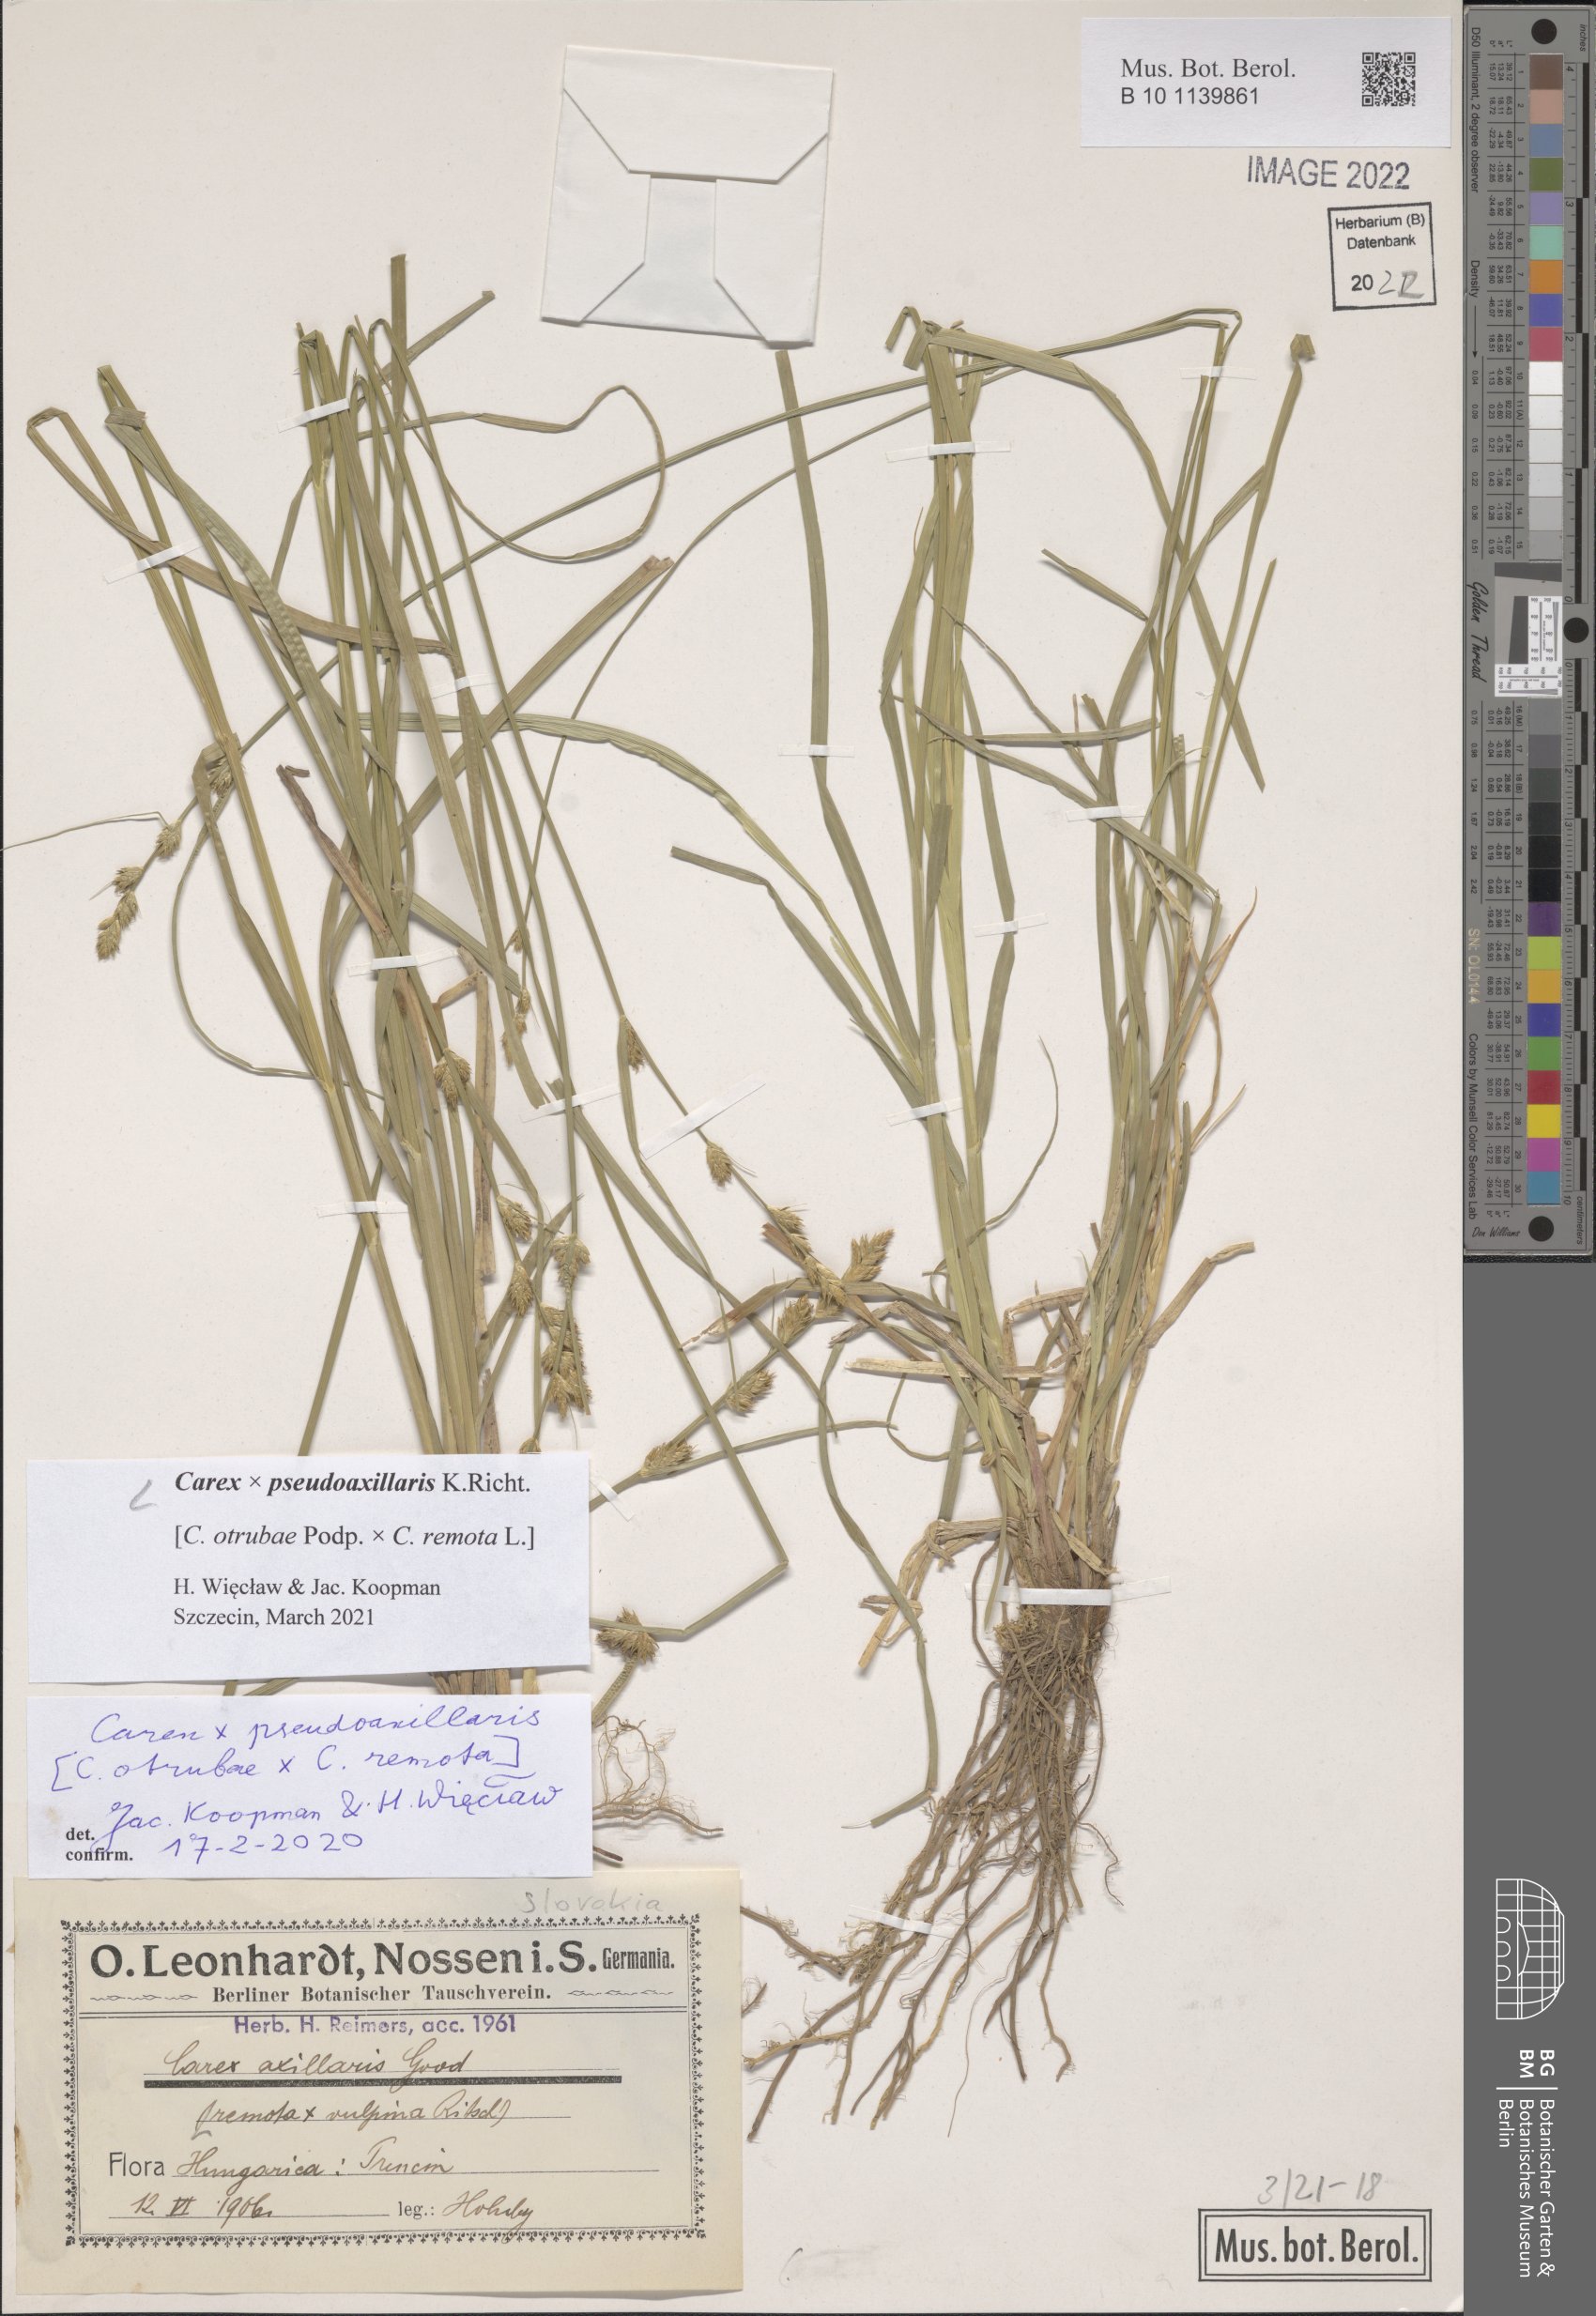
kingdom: Plantae
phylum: Tracheophyta
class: Liliopsida
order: Poales
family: Cyperaceae
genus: Carex
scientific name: Carex pseudoaxillaris
